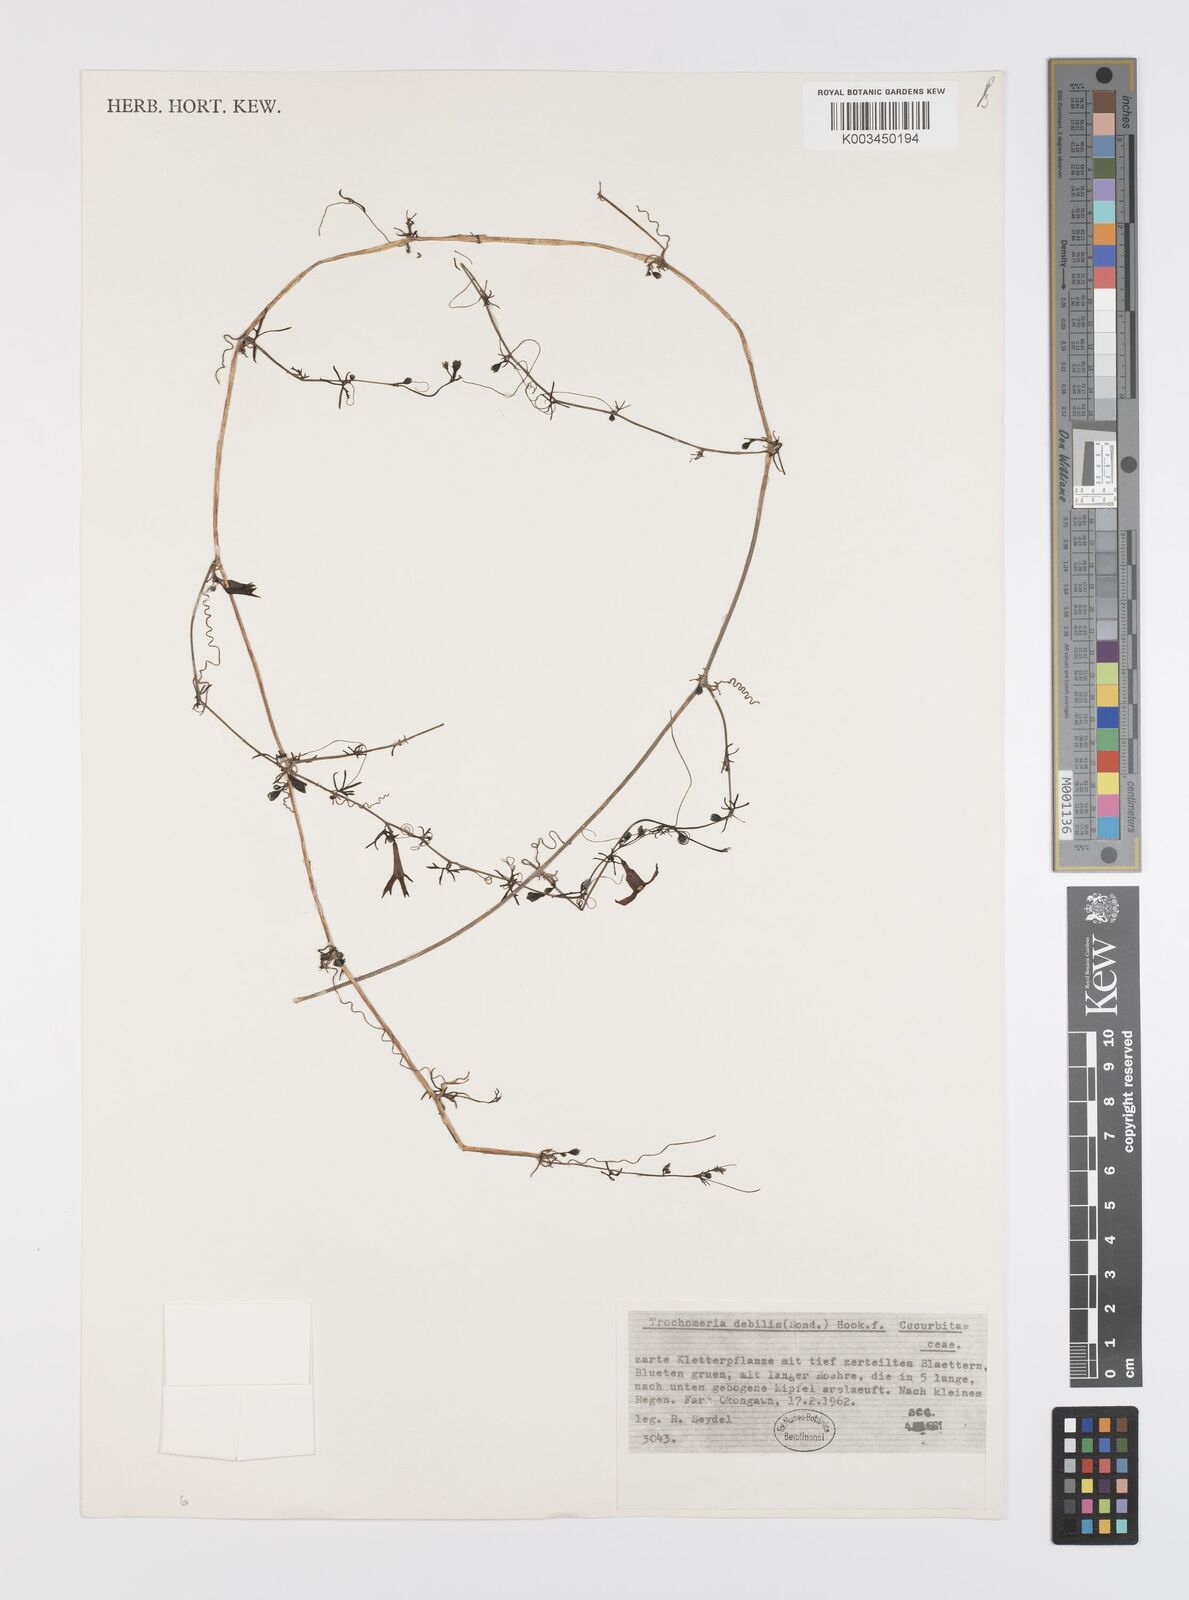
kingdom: Plantae
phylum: Tracheophyta
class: Magnoliopsida
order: Cucurbitales
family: Cucurbitaceae
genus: Trochomeria
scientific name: Trochomeria debilis
